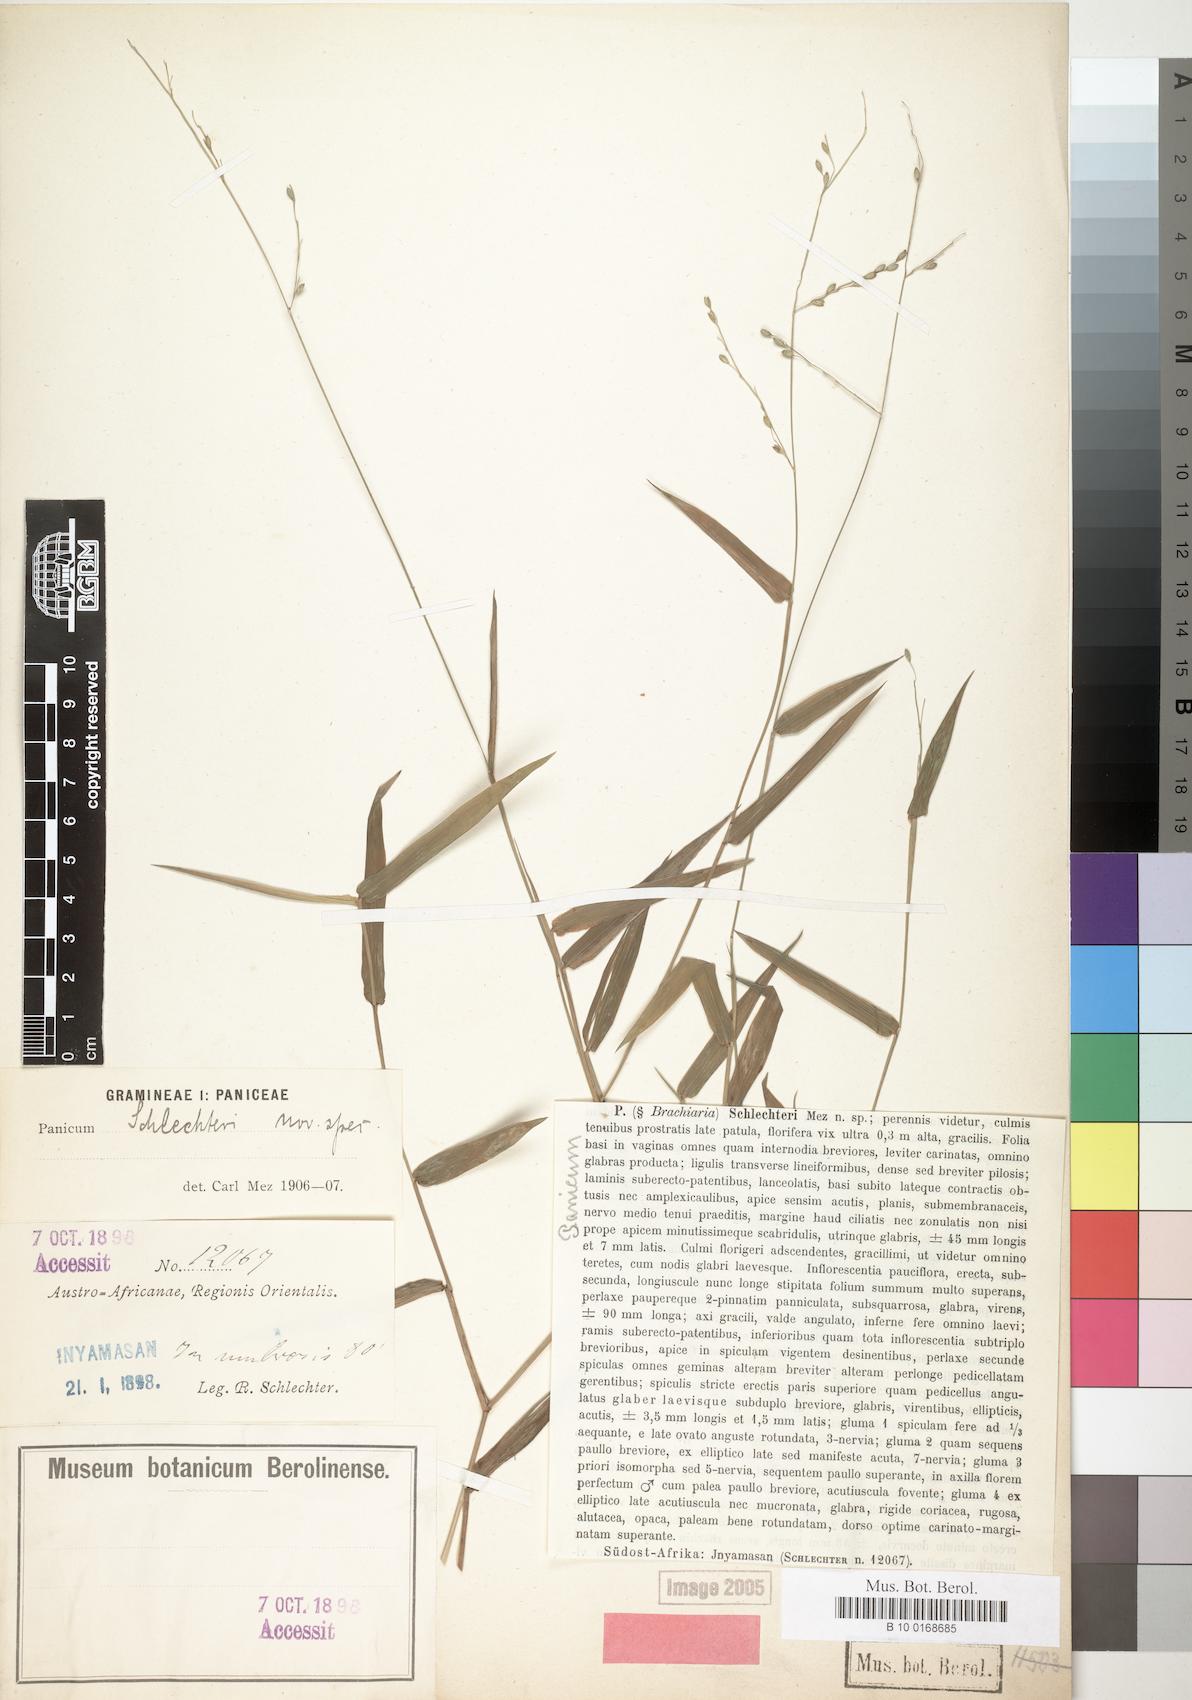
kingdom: Plantae
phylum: Tracheophyta
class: Liliopsida
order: Poales
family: Poaceae
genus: Urochloa
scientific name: Urochloa chusqueoides
